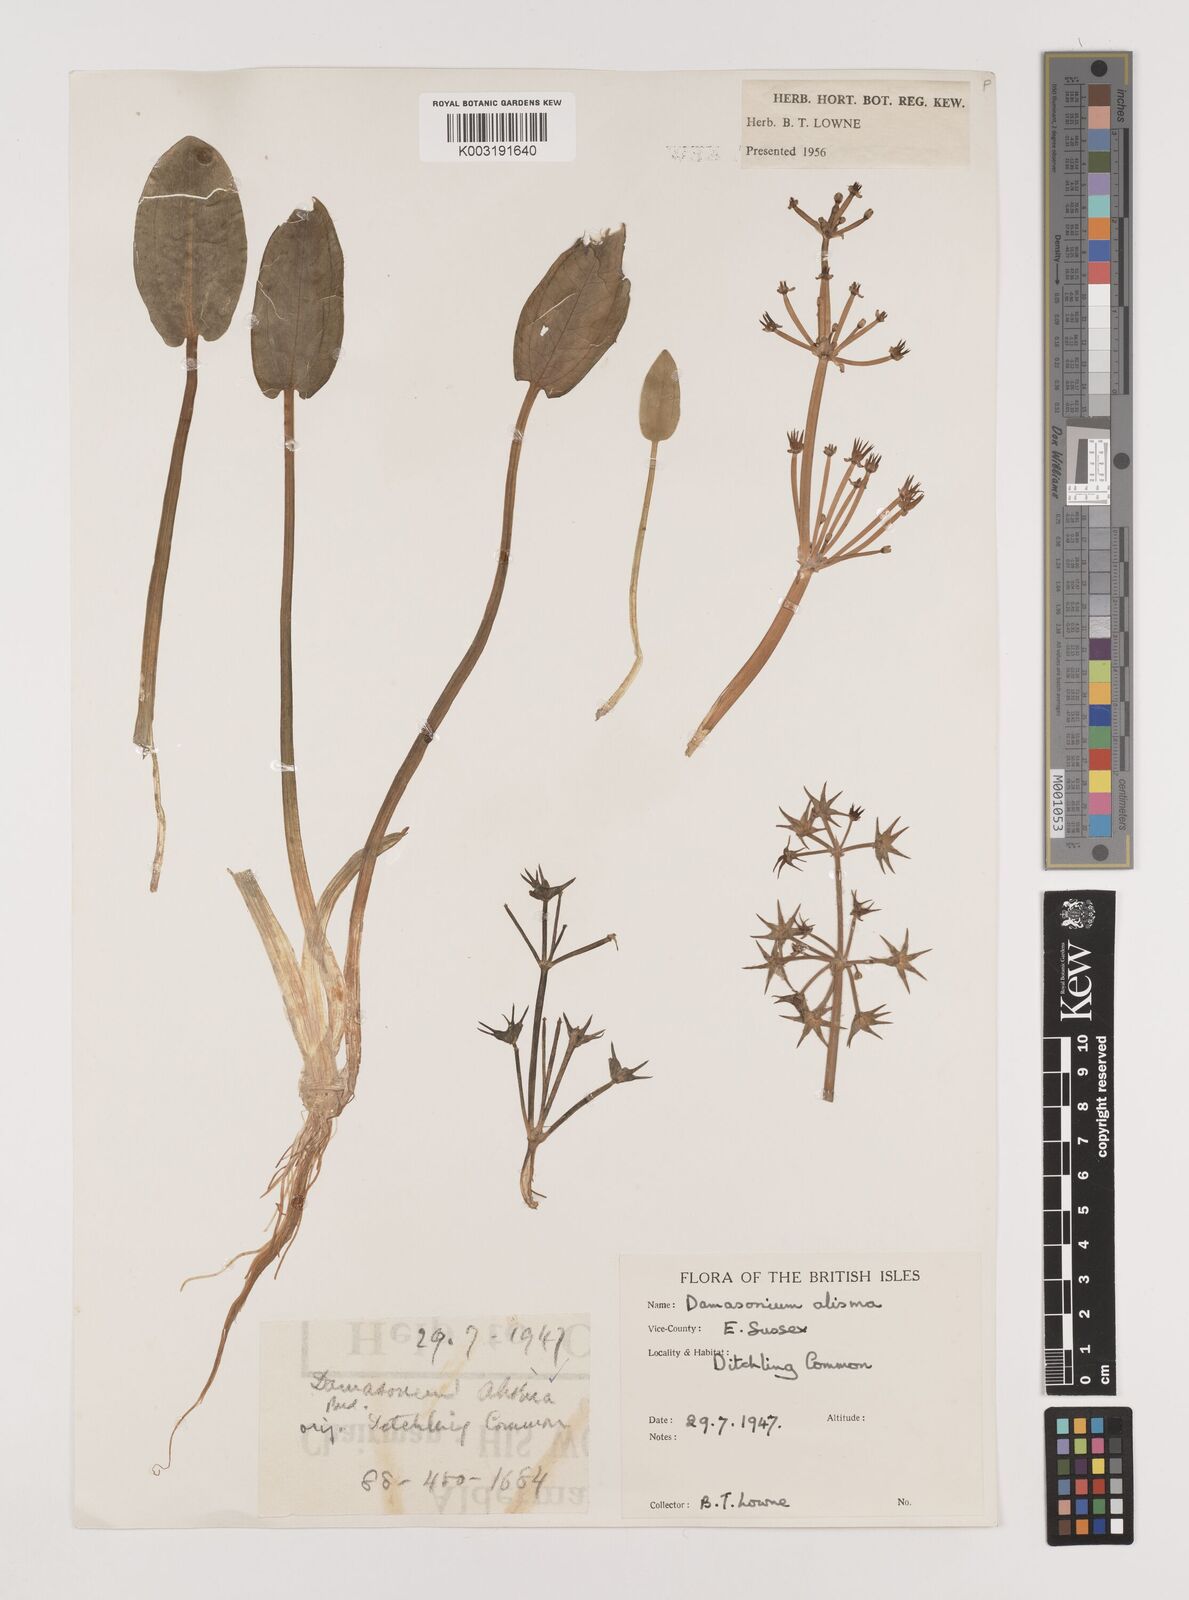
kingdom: Plantae
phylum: Tracheophyta
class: Liliopsida
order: Alismatales
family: Alismataceae
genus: Damasonium
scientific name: Damasonium alisma
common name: Starfruit
